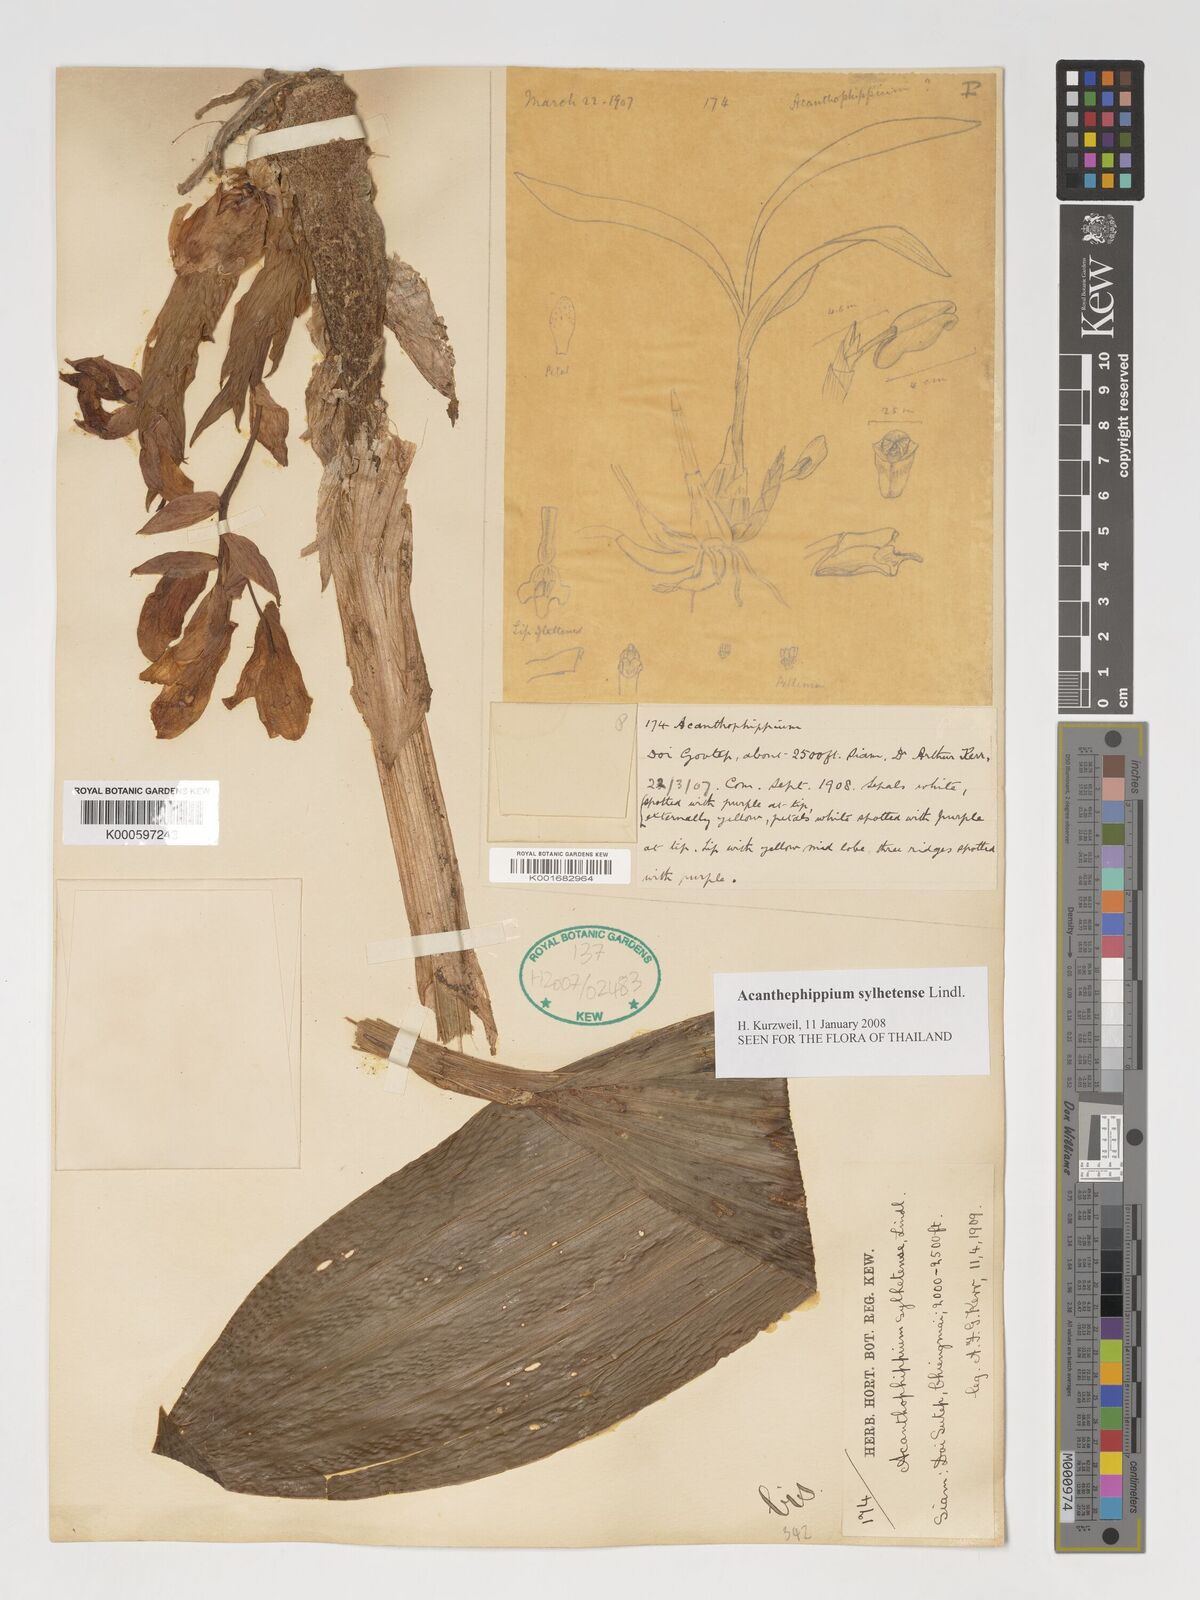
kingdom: Plantae
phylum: Tracheophyta
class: Liliopsida
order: Asparagales
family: Orchidaceae
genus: Acanthophippium
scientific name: Acanthophippium sylhetense
